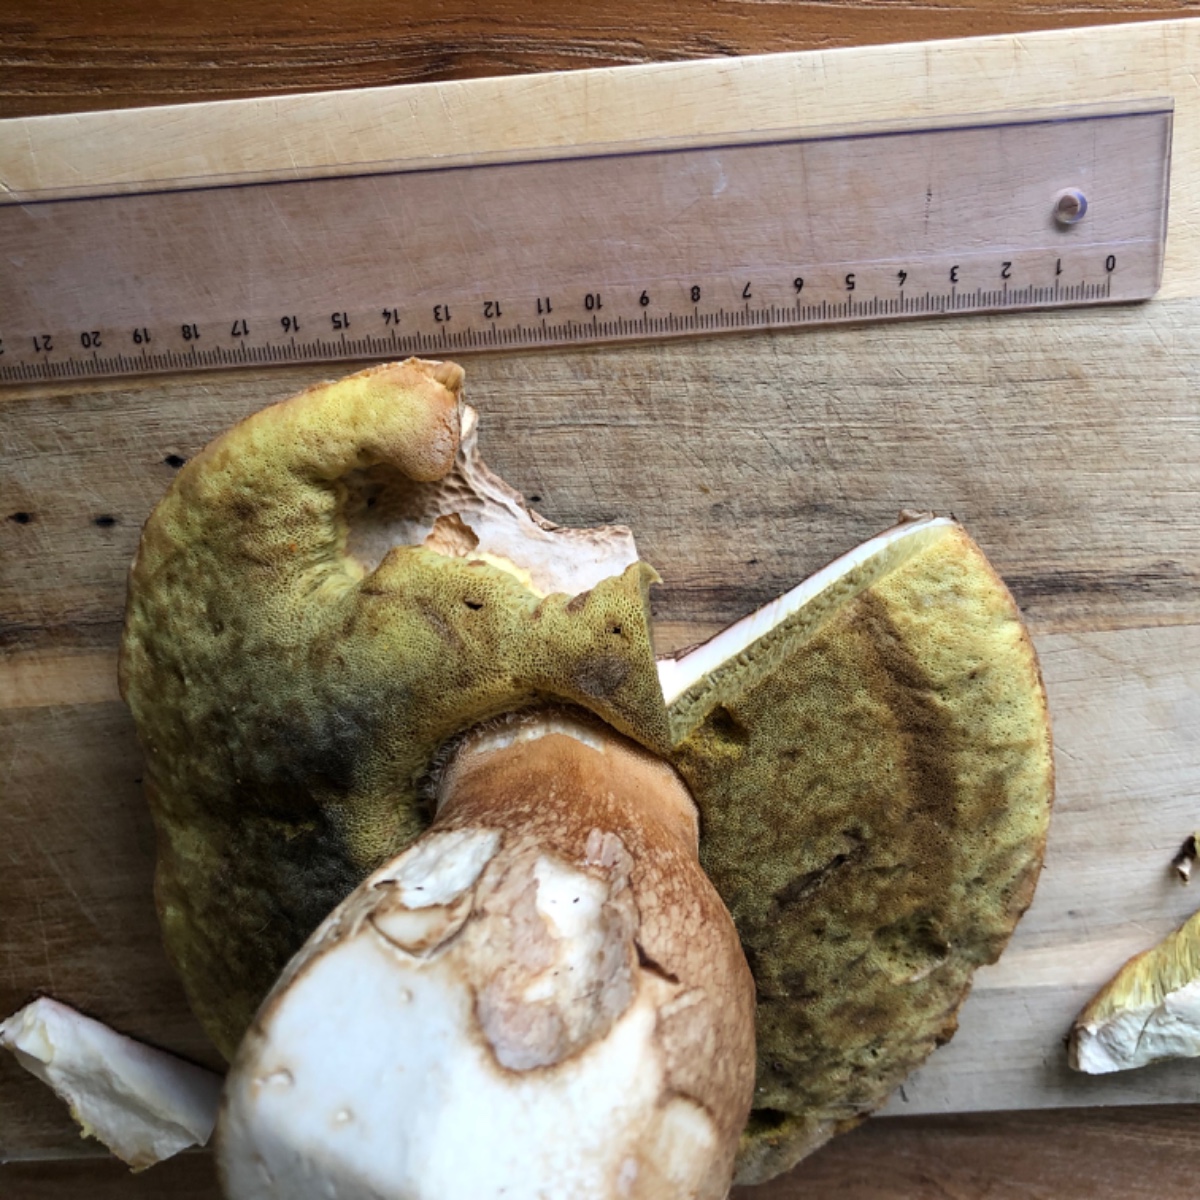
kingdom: Fungi
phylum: Basidiomycota
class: Agaricomycetes
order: Boletales
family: Boletaceae
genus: Boletus
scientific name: Boletus edulis
